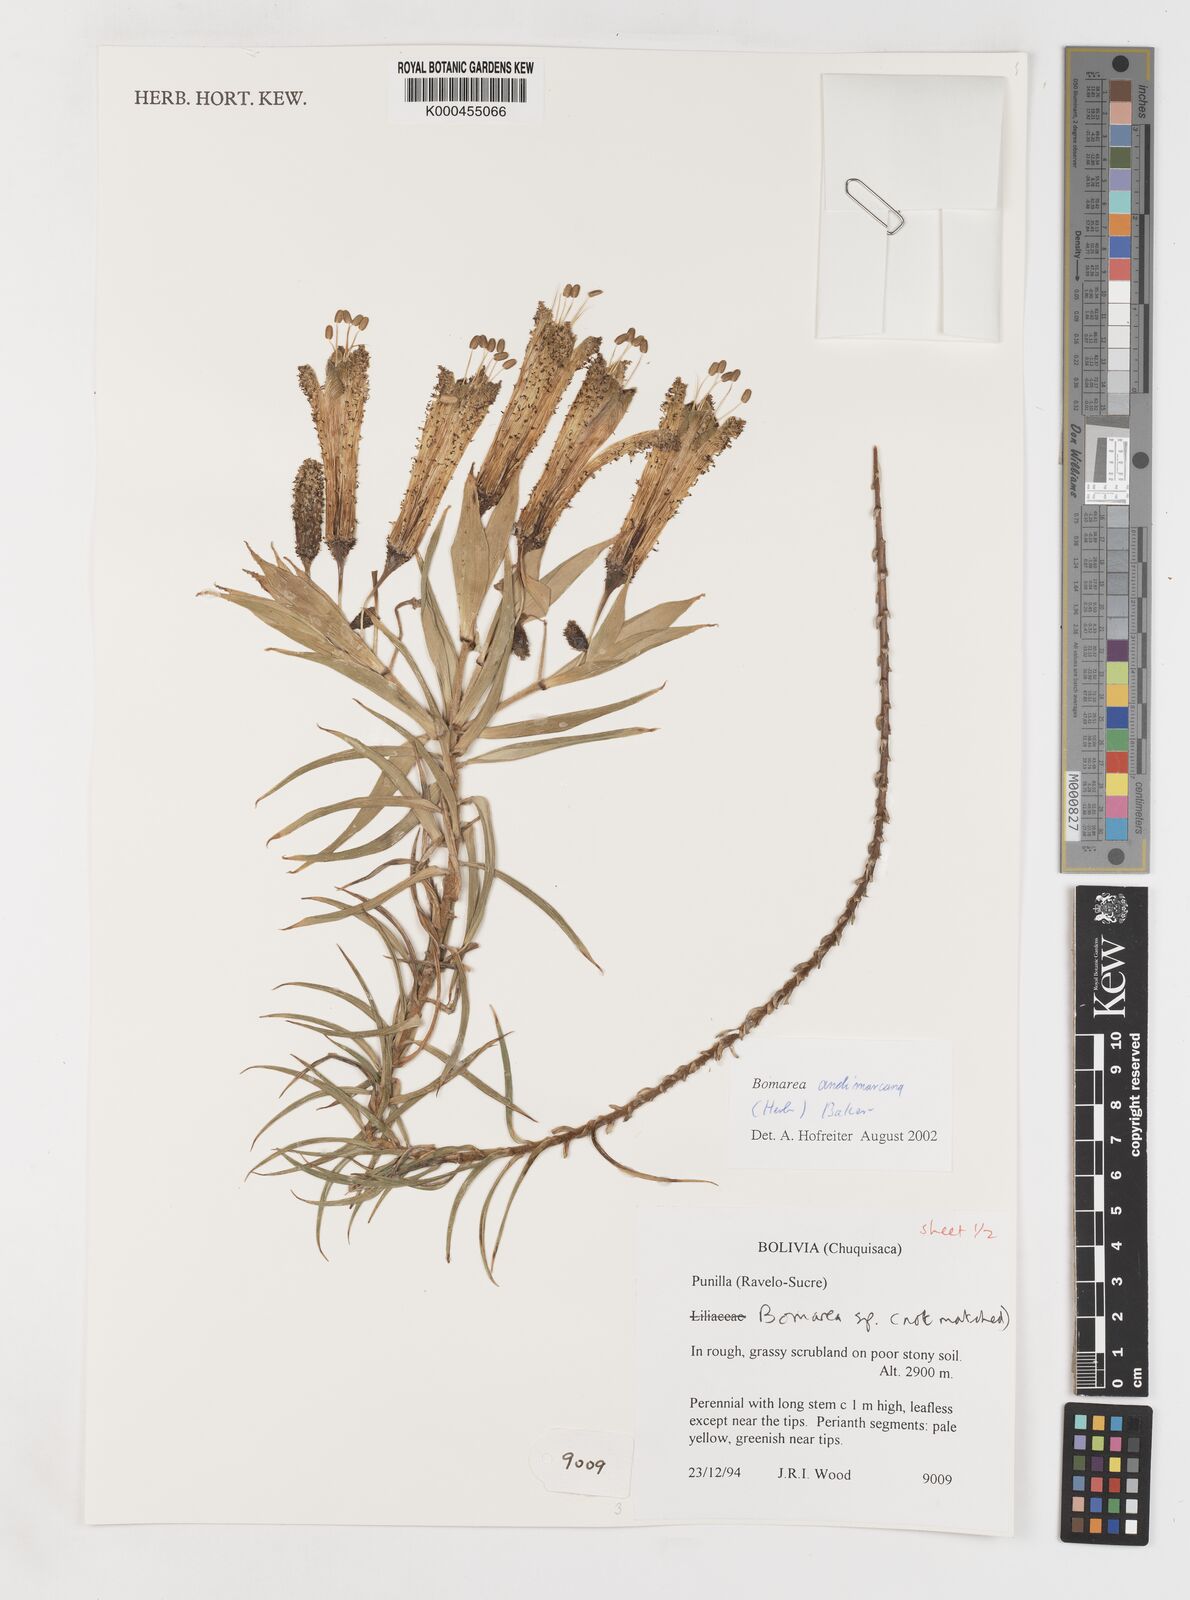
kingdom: Plantae
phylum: Tracheophyta
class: Liliopsida
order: Liliales
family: Alstroemeriaceae
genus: Bomarea
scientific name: Bomarea andimarcana
